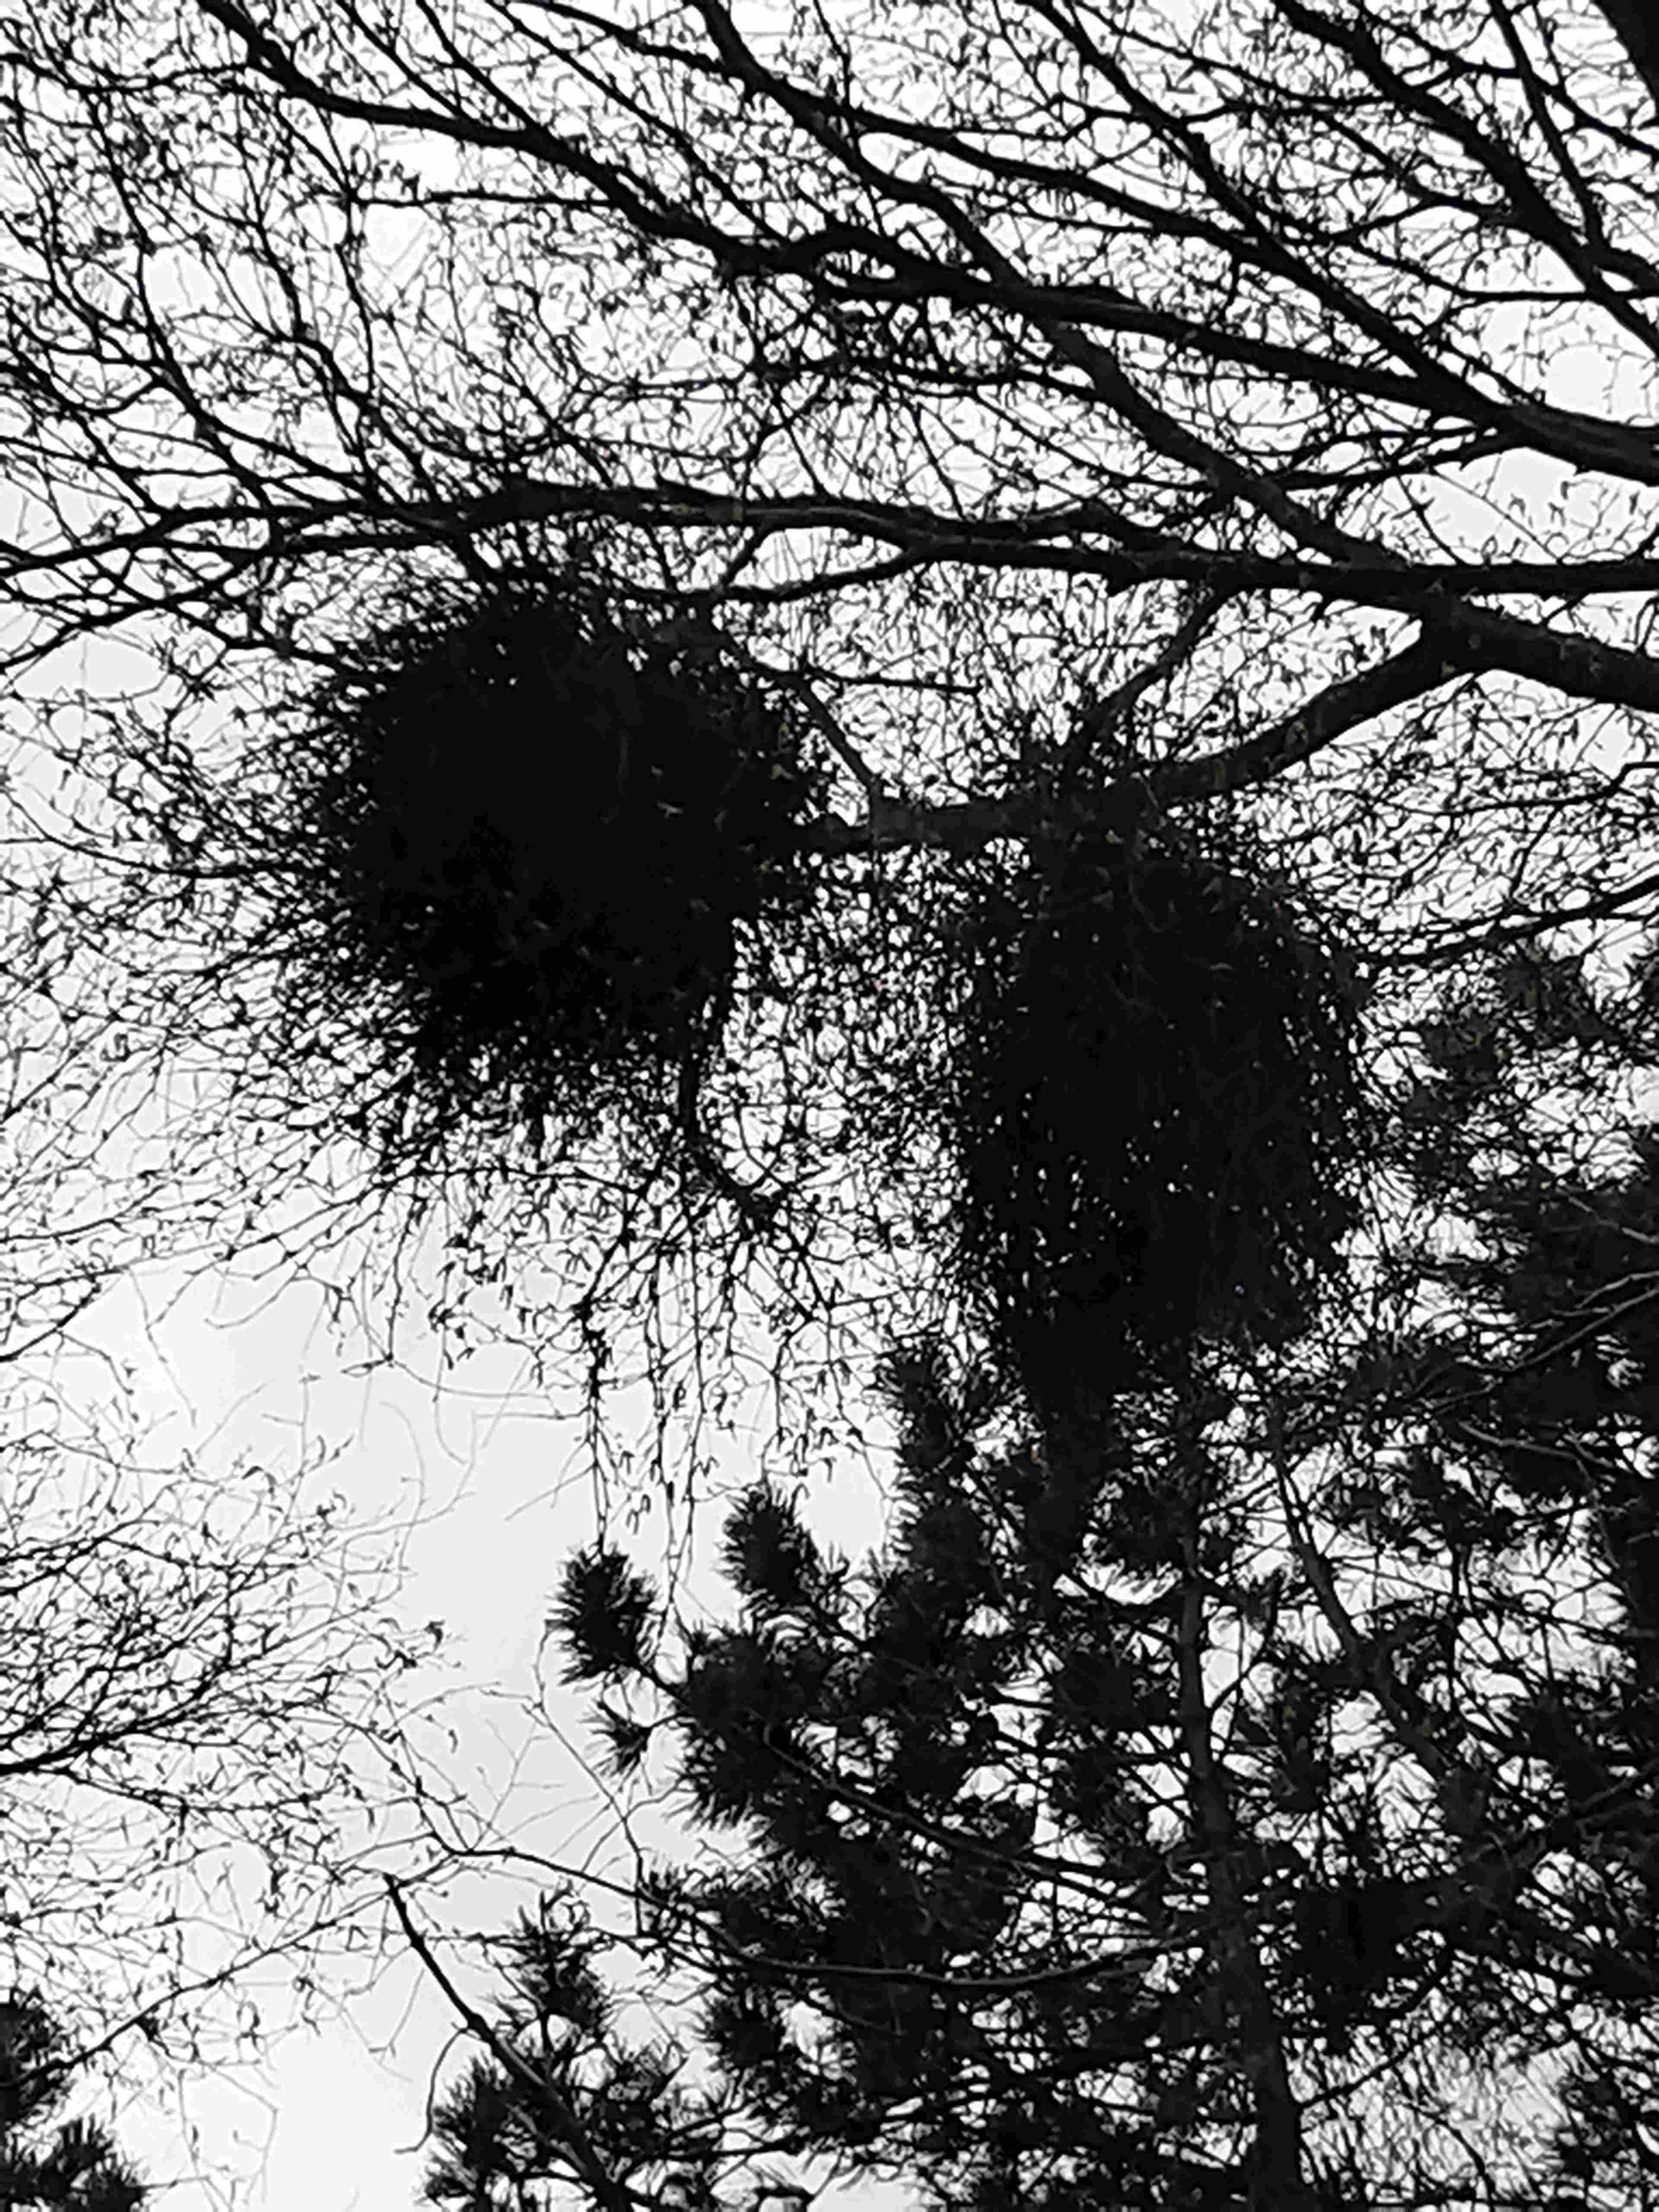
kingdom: Fungi
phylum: Ascomycota
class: Taphrinomycetes
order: Taphrinales
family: Taphrinaceae
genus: Taphrina
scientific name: Taphrina betulina
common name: hekse-sækdug
